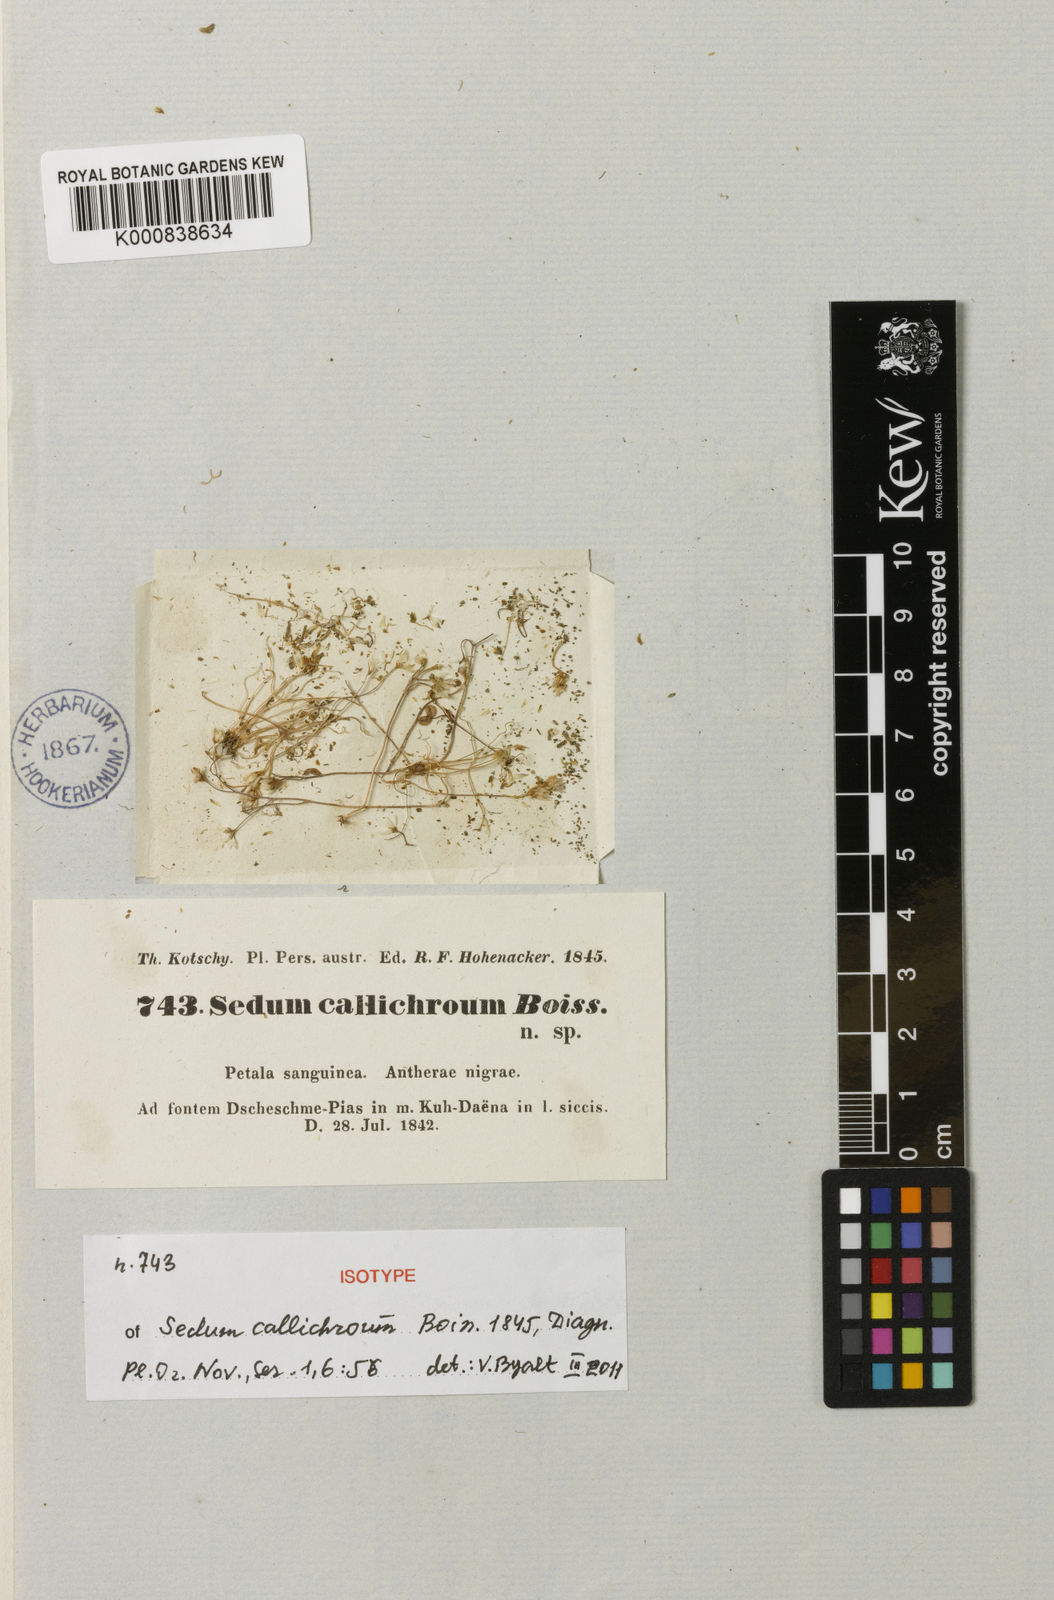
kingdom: Plantae
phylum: Tracheophyta
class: Magnoliopsida
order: Saxifragales
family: Crassulaceae
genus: Sedum
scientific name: Sedum kotschyanum
